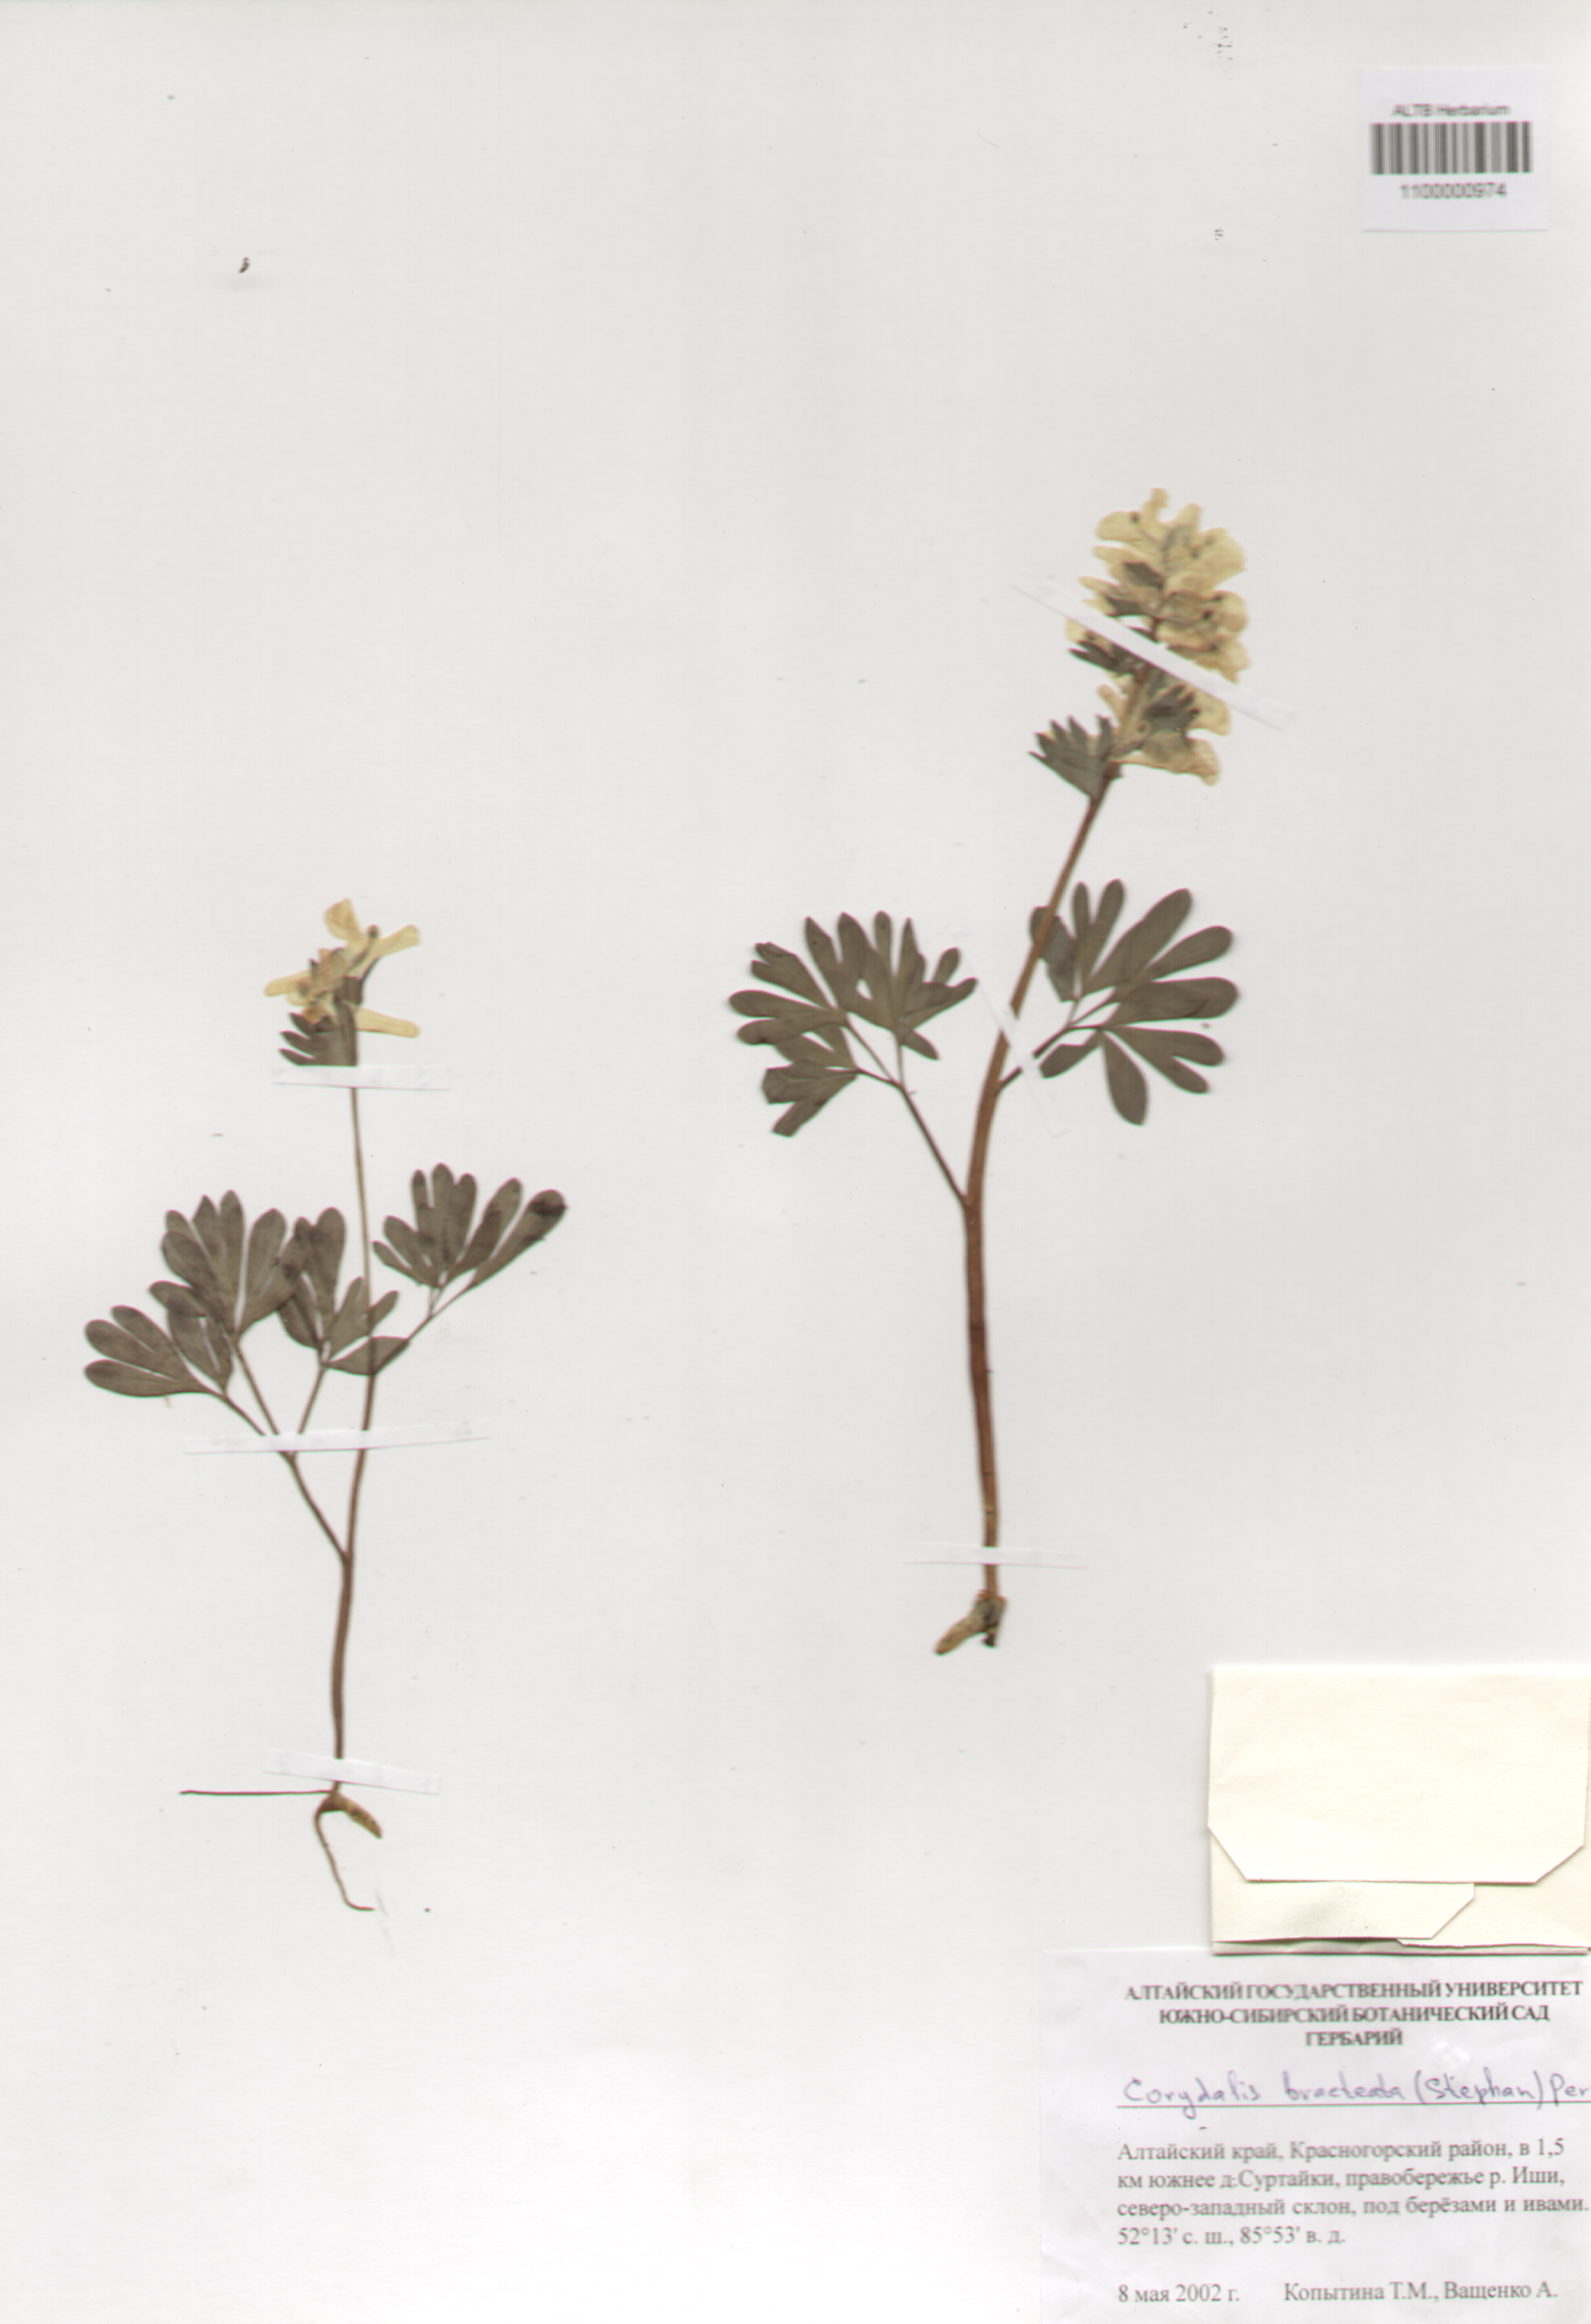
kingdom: Plantae
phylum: Tracheophyta
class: Magnoliopsida
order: Ranunculales
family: Papaveraceae
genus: Corydalis
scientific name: Corydalis bracteata
